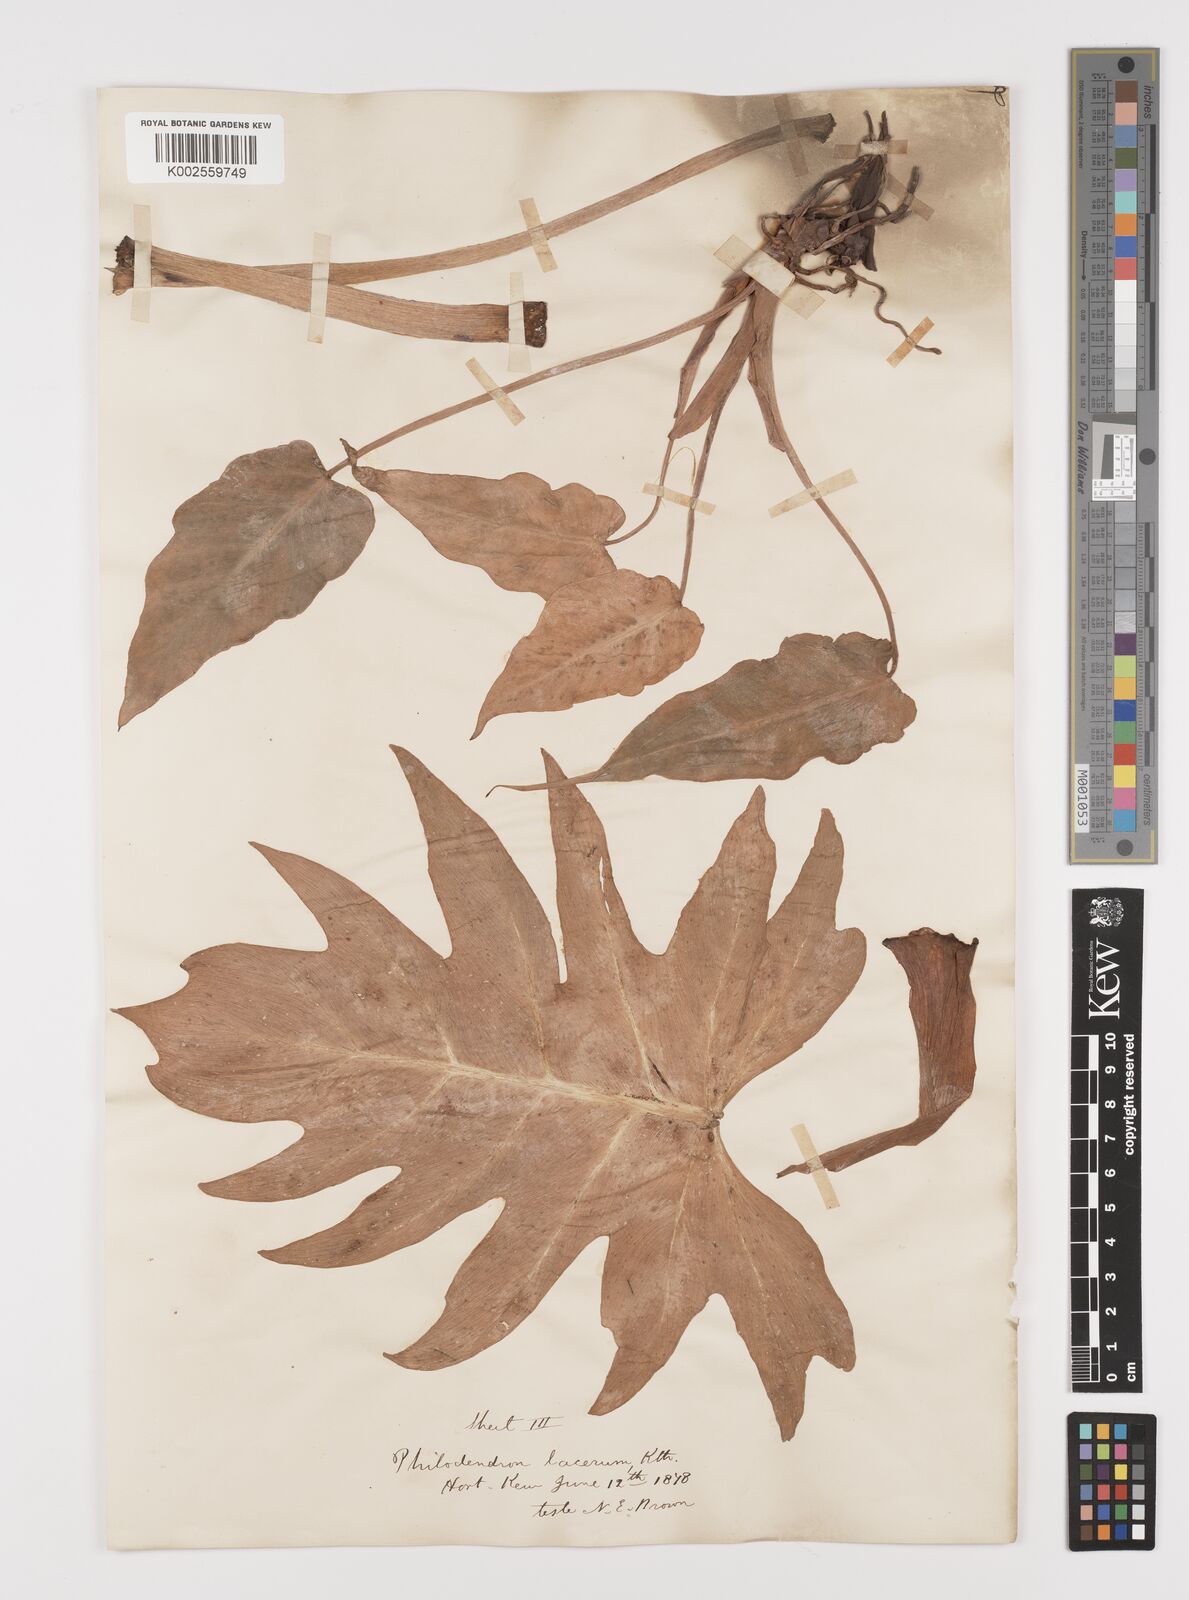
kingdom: Plantae
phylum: Tracheophyta
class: Liliopsida
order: Alismatales
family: Araceae
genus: Philodendron
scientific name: Philodendron lacerum
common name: Philodendron
